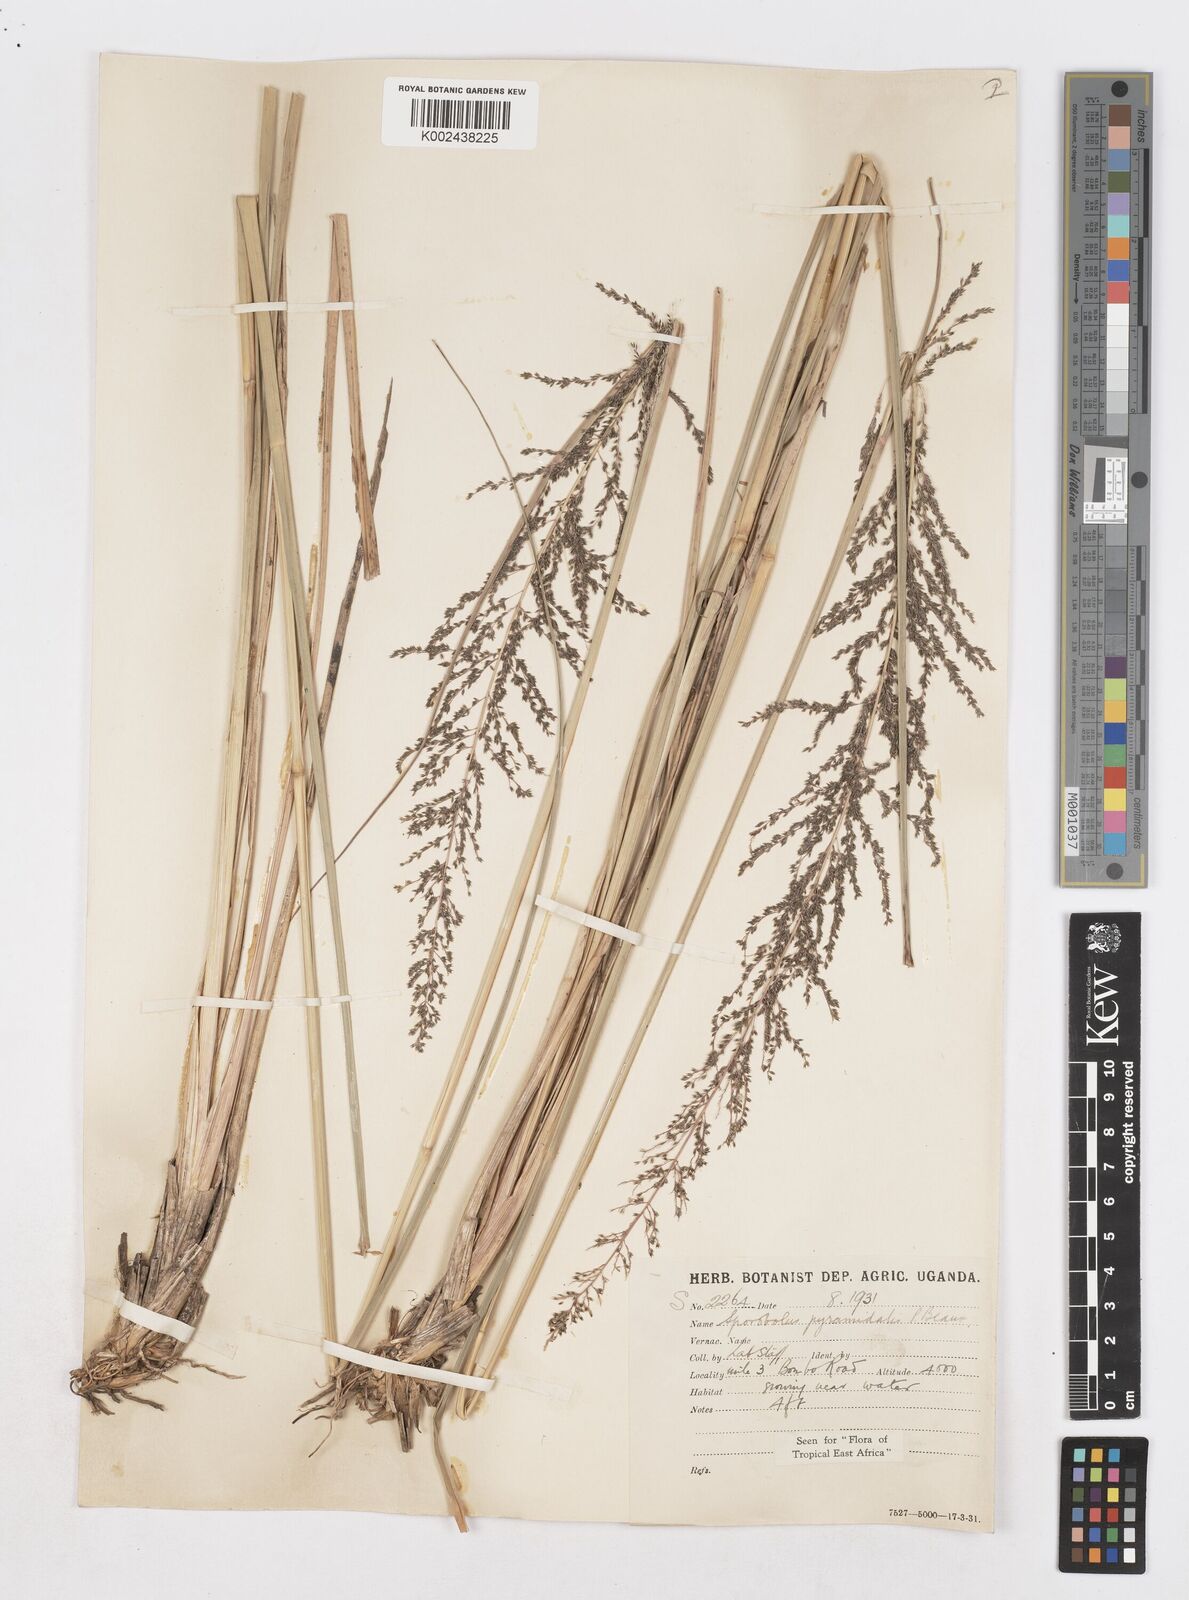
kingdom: Plantae
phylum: Tracheophyta
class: Liliopsida
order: Poales
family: Poaceae
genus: Sporobolus
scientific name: Sporobolus pyramidalis
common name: West indian dropseed
